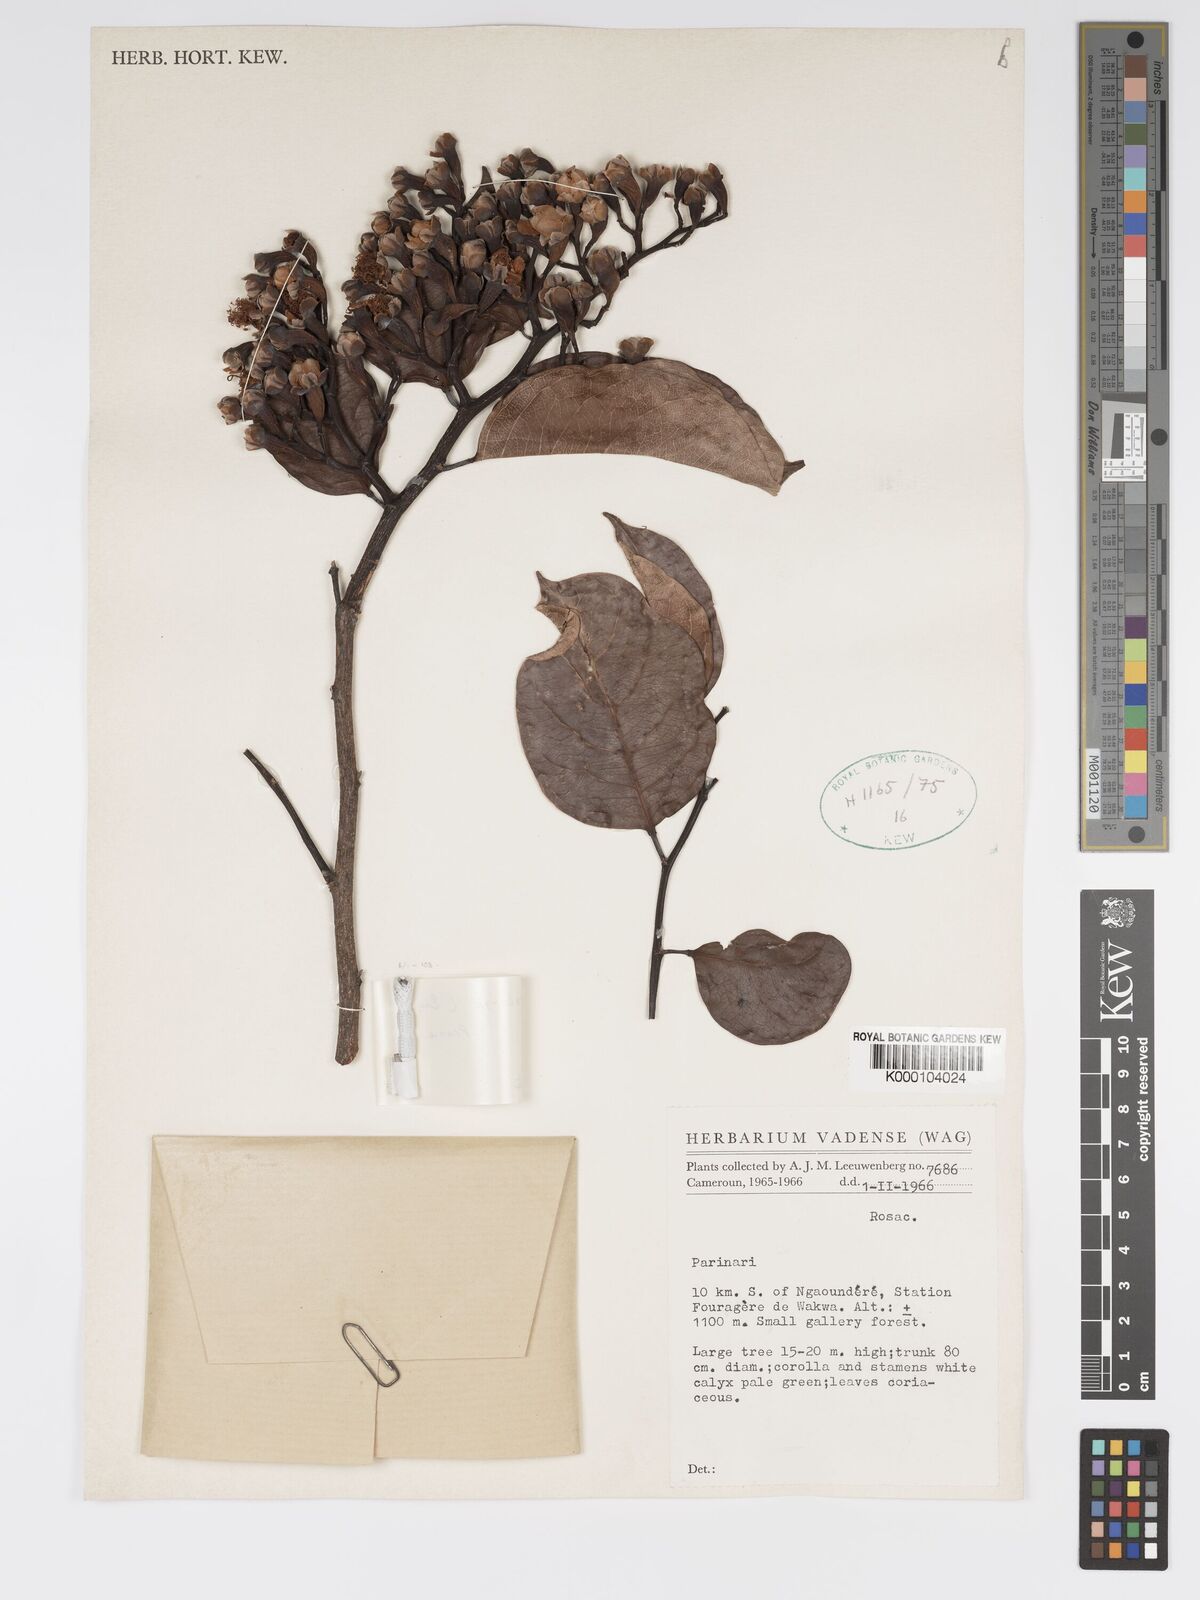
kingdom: Plantae
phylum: Tracheophyta
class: Magnoliopsida
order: Malpighiales
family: Chrysobalanaceae
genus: Maranthes
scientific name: Maranthes
